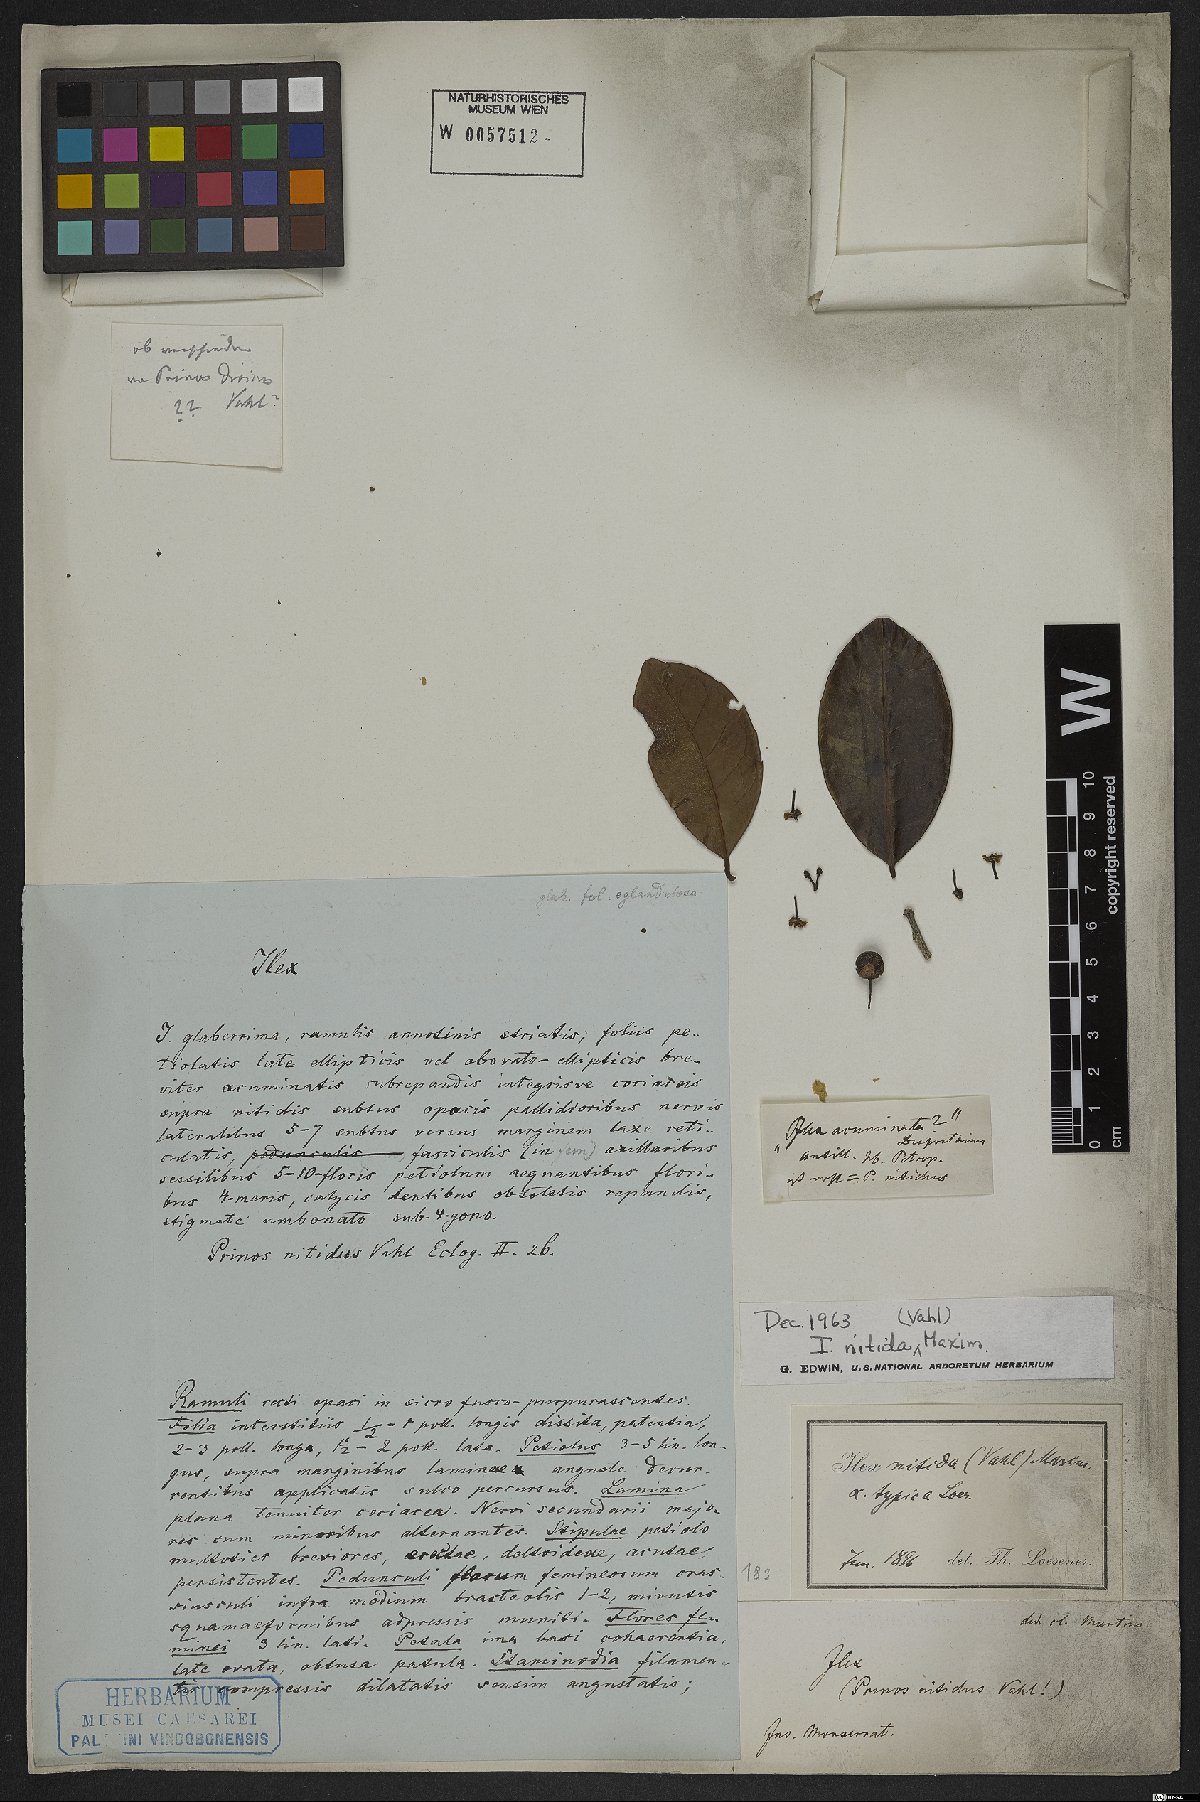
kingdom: Plantae
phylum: Tracheophyta
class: Magnoliopsida
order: Aquifoliales
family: Aquifoliaceae
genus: Ilex
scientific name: Ilex nitida
